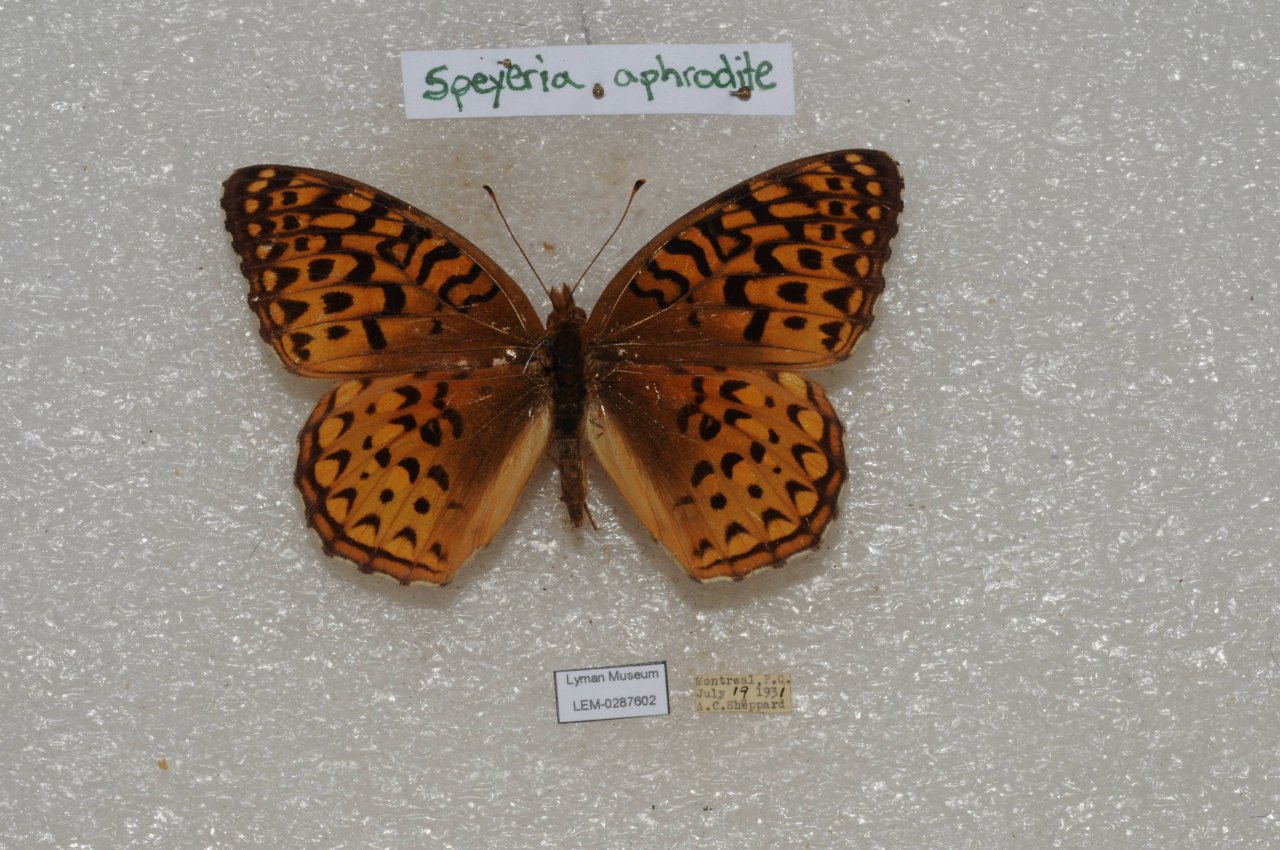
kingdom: Animalia
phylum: Arthropoda
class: Insecta
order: Lepidoptera
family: Nymphalidae
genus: Speyeria
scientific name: Speyeria aphrodite
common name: Aphrodite Fritillary
